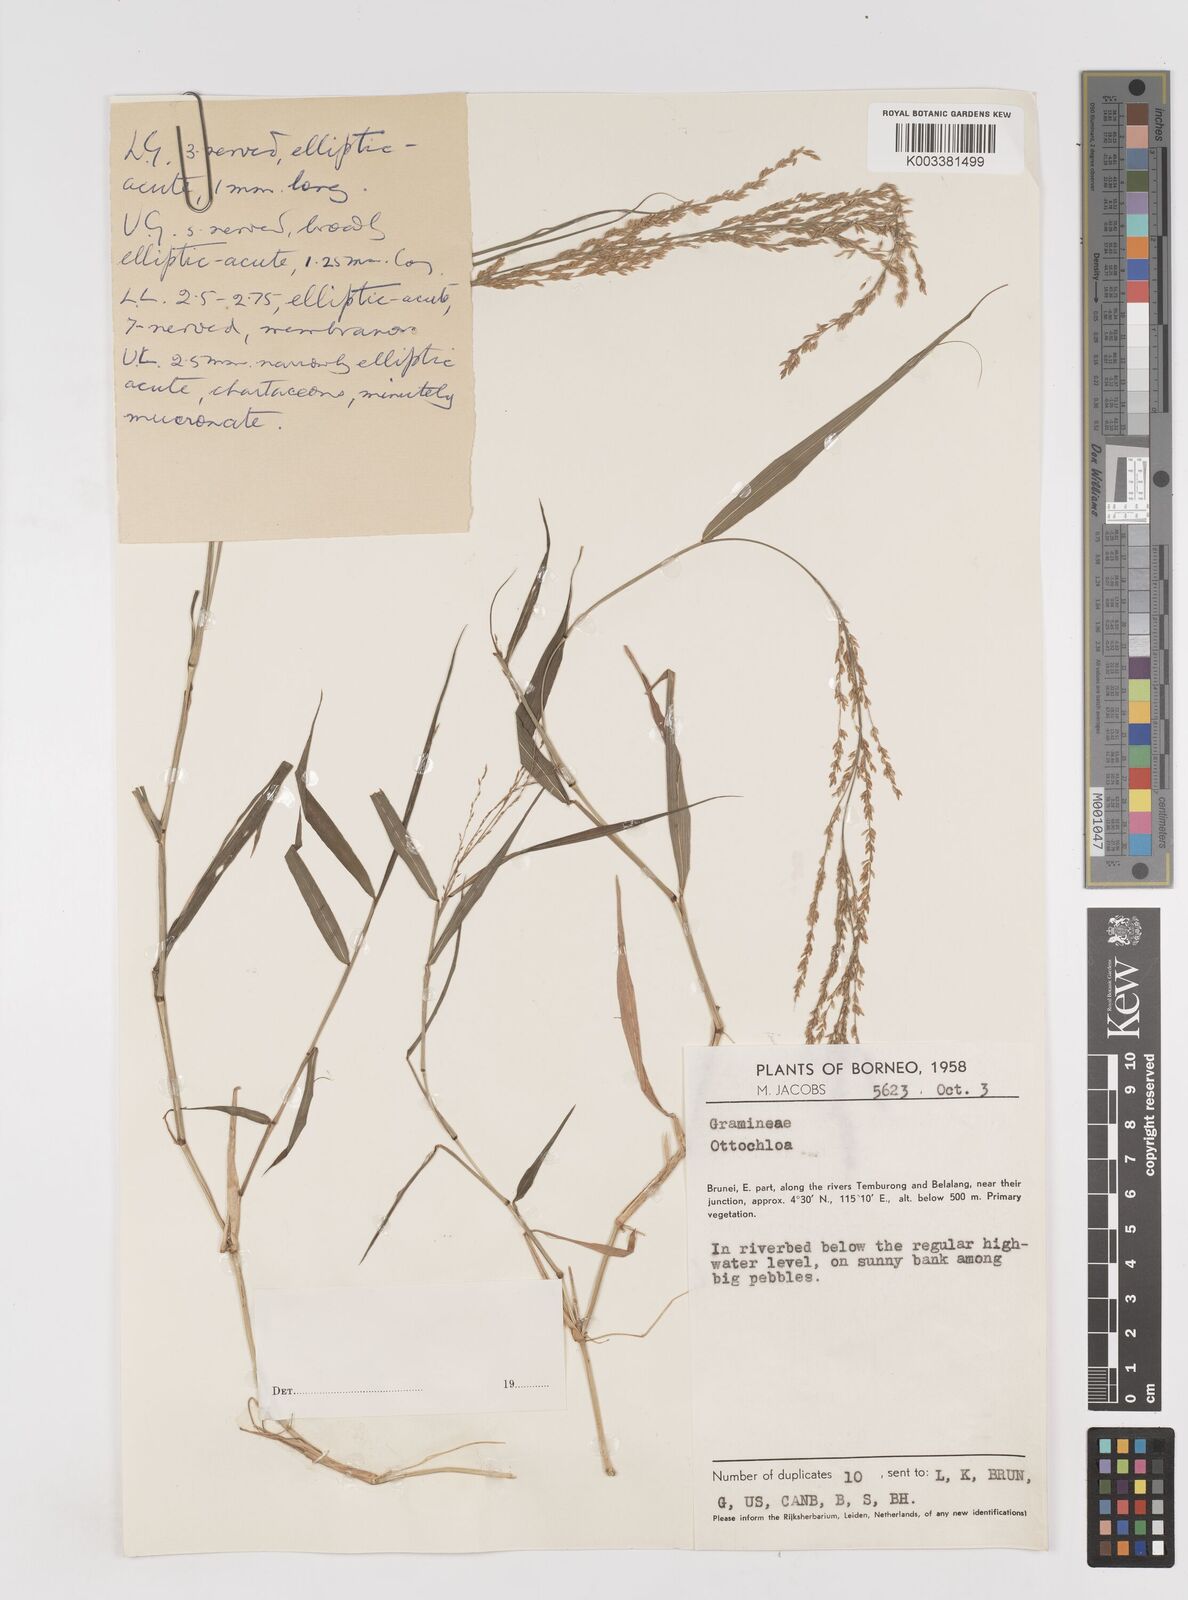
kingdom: Plantae
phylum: Tracheophyta
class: Liliopsida
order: Poales
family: Poaceae
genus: Ottochloa
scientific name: Ottochloa nodosa
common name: Slender-panic grass
